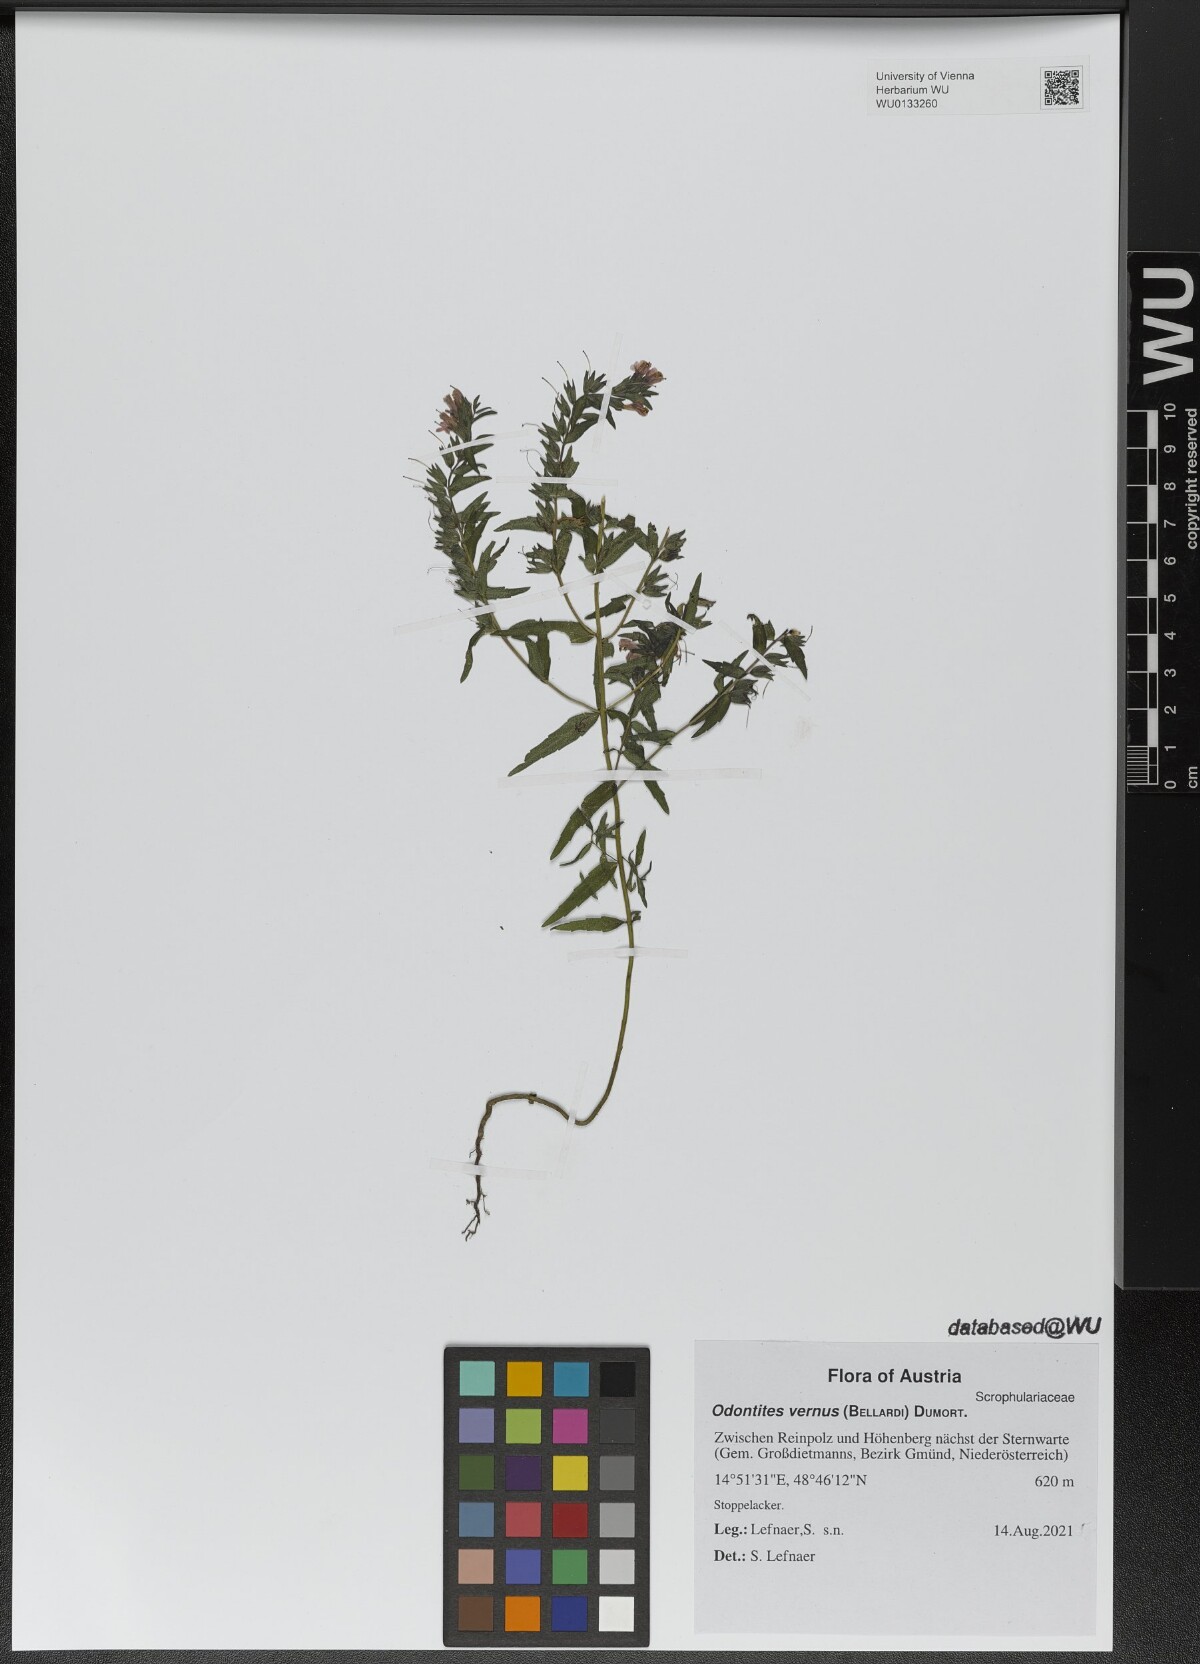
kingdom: Plantae
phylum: Tracheophyta
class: Magnoliopsida
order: Lamiales
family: Orobanchaceae
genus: Odontites
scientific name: Odontites vernus
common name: Red bartsia
